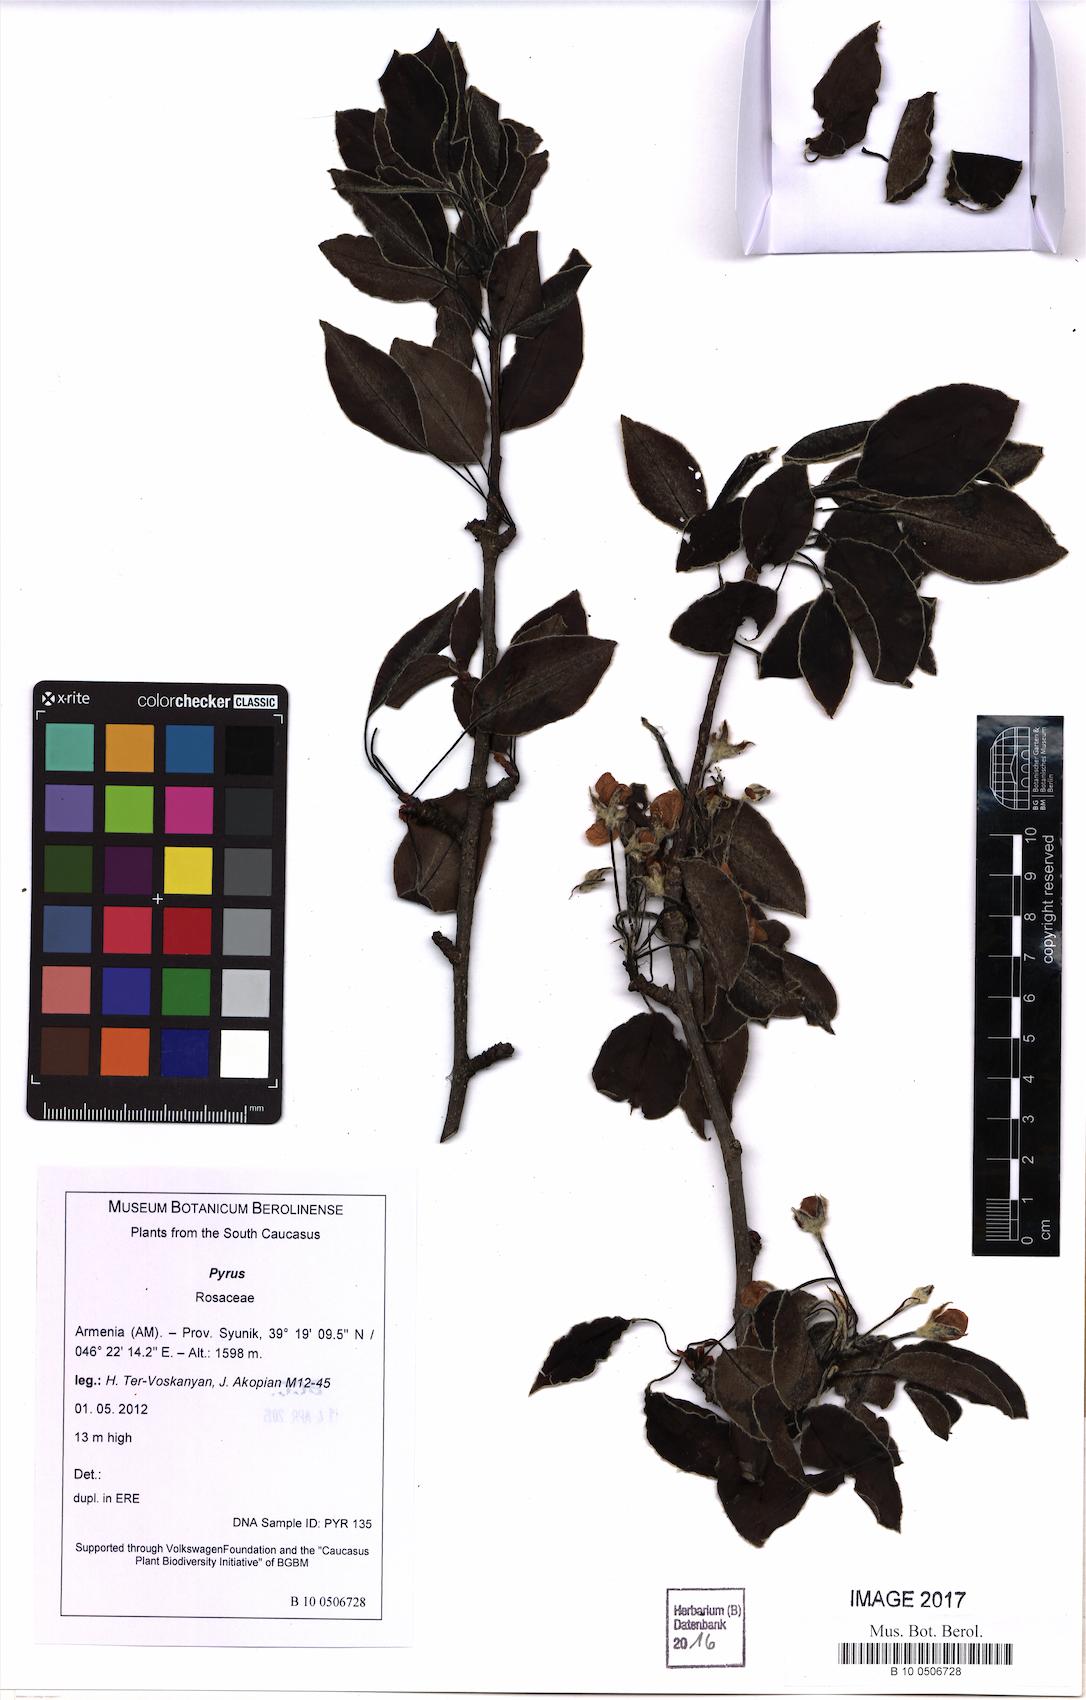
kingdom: Plantae
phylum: Tracheophyta
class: Magnoliopsida
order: Rosales
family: Rosaceae
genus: Pyrus
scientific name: Pyrus
